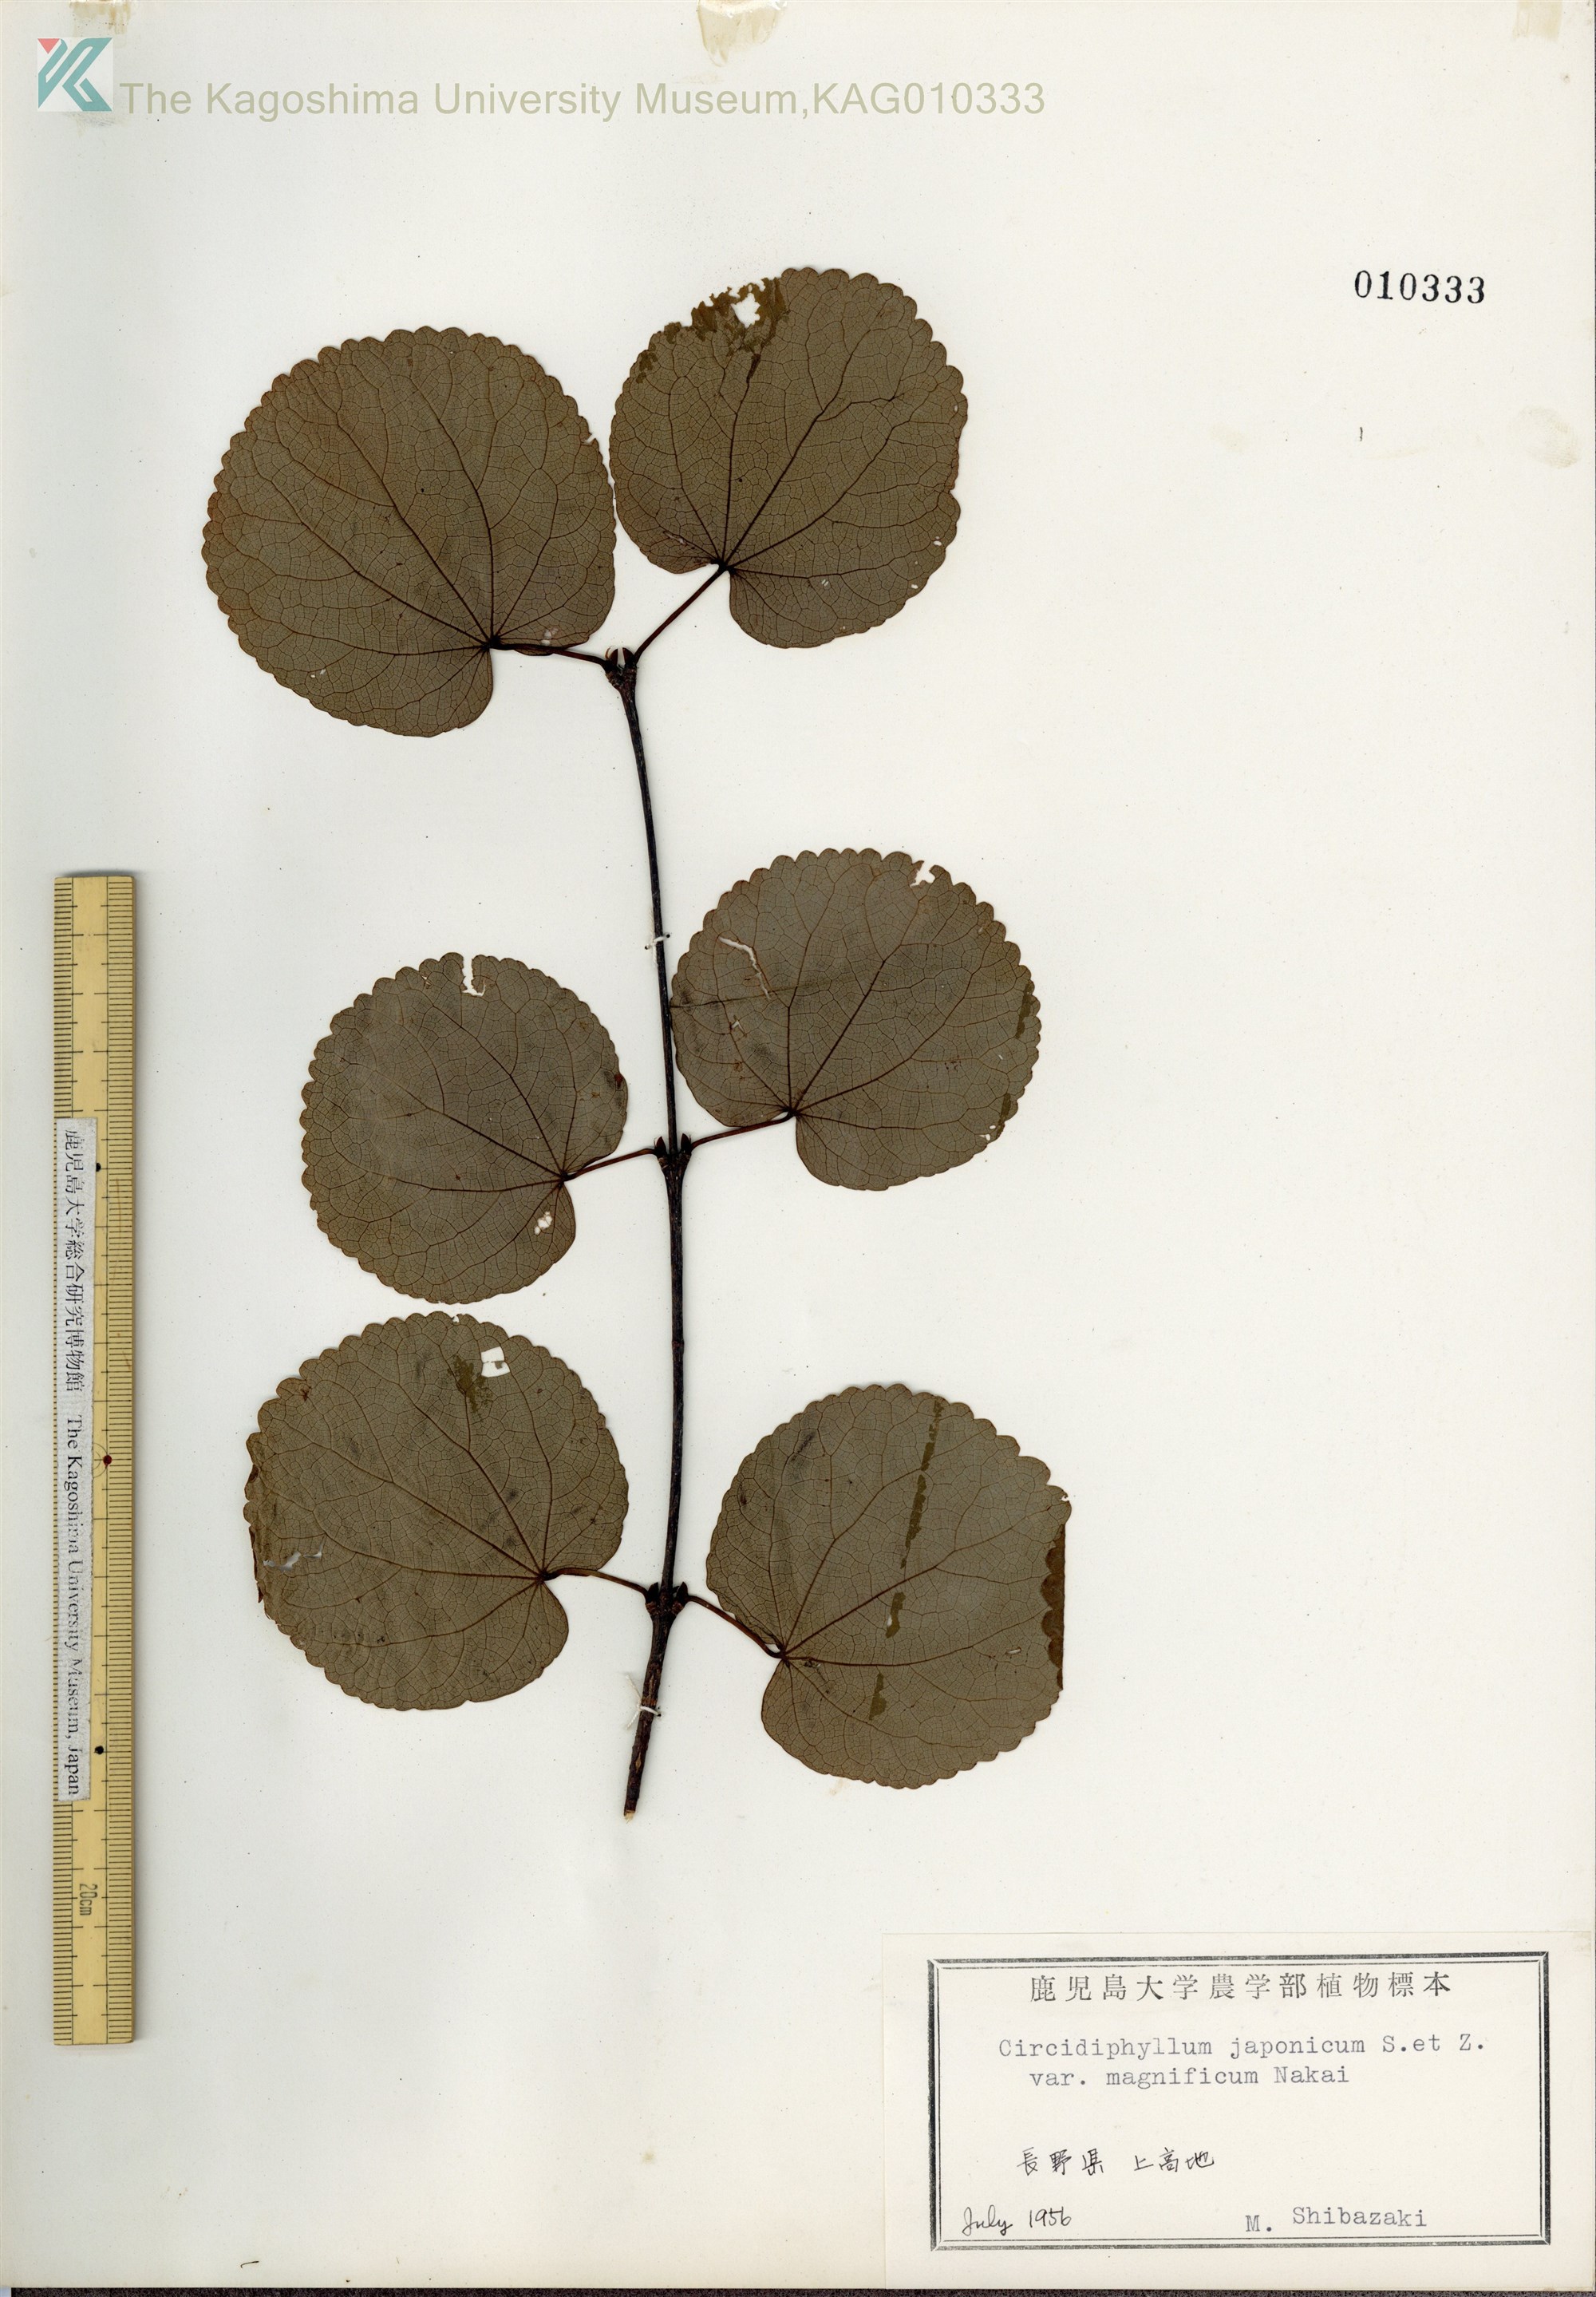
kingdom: Plantae
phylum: Tracheophyta
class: Magnoliopsida
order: Saxifragales
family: Cercidiphyllaceae
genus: Cercidiphyllum
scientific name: Cercidiphyllum magnificum
